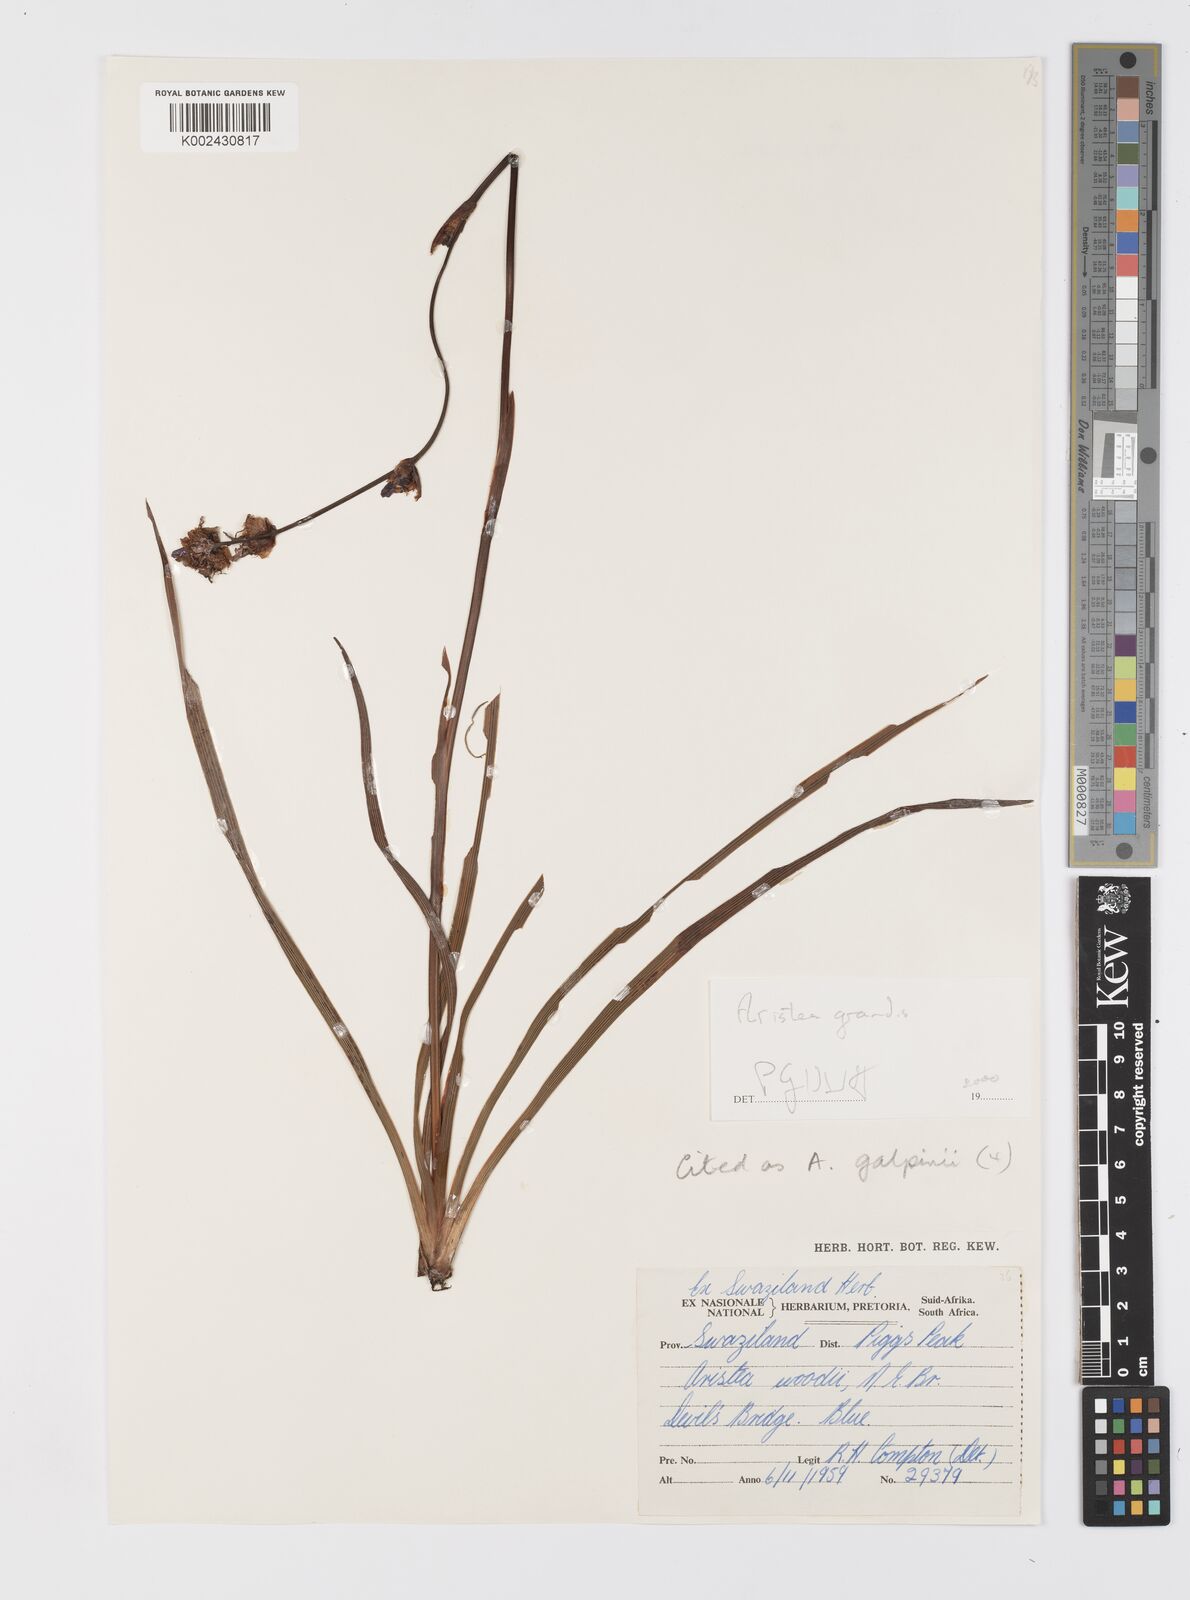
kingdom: Plantae
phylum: Tracheophyta
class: Liliopsida
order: Asparagales
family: Iridaceae
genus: Aristea
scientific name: Aristea grandis
